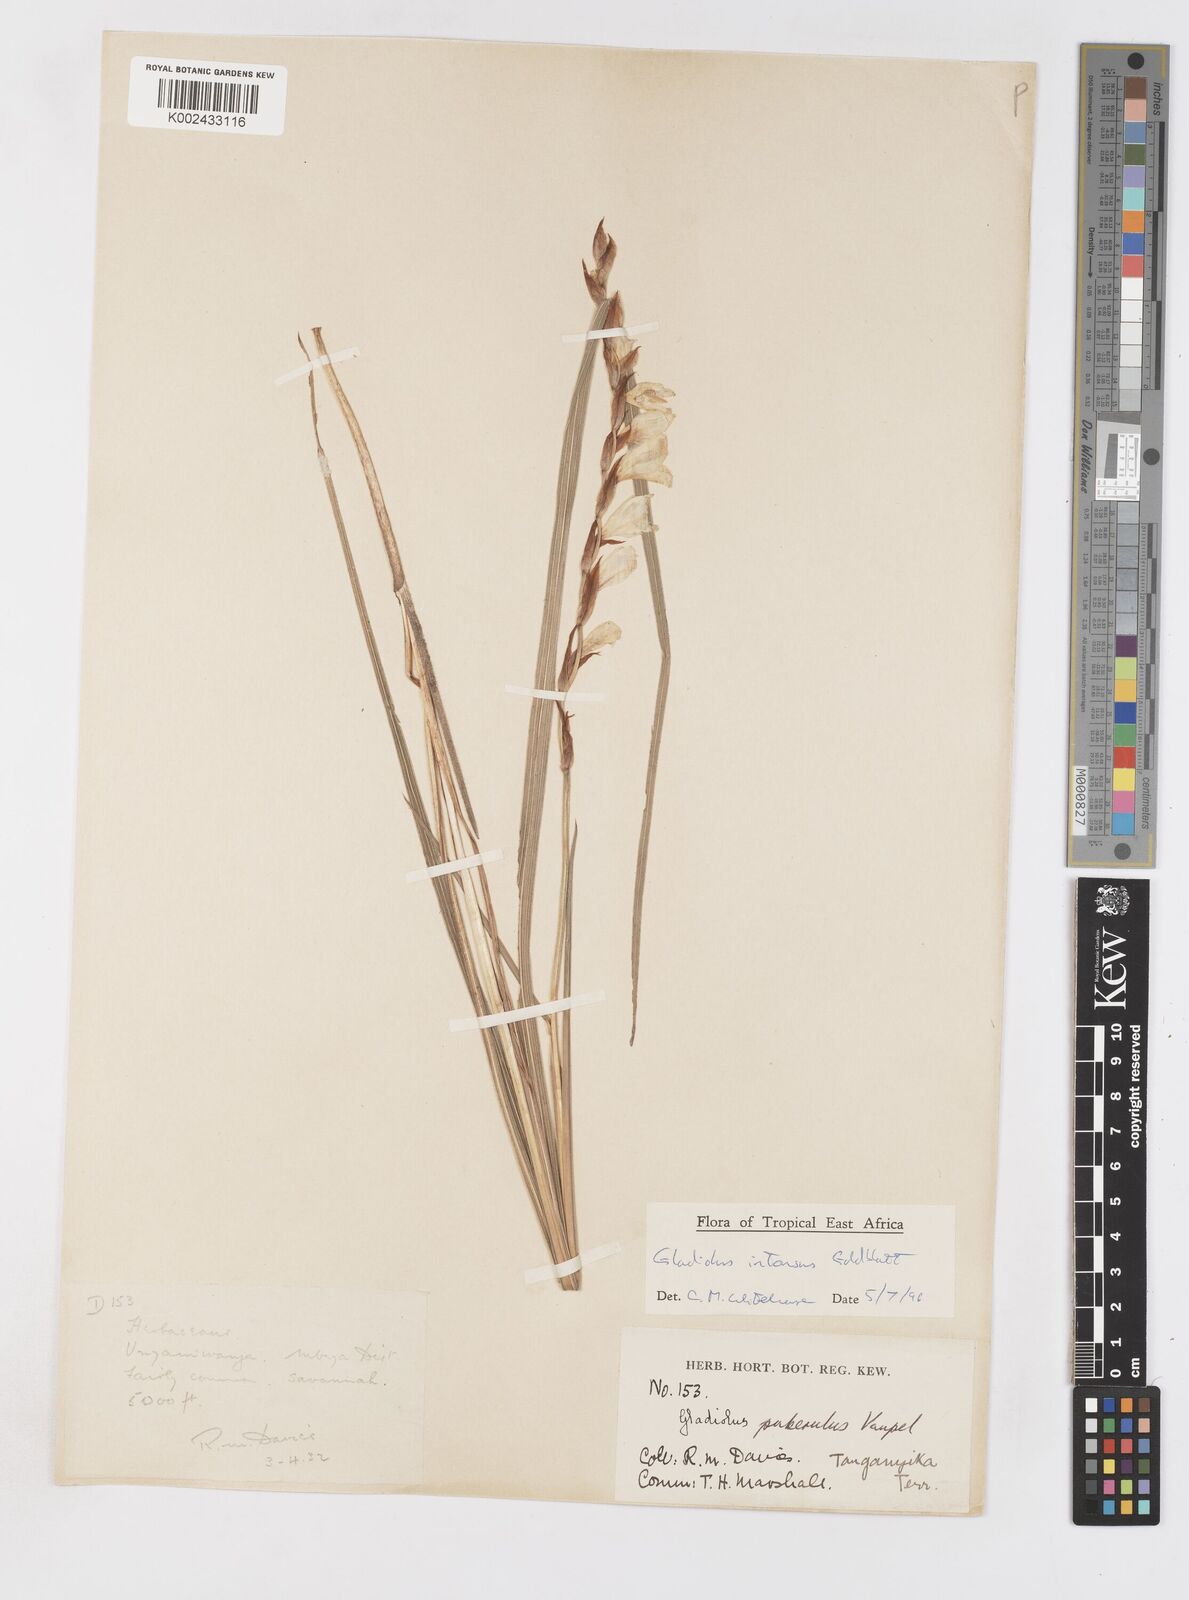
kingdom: Plantae
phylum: Tracheophyta
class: Liliopsida
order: Asparagales
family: Iridaceae
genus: Gladiolus
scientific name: Gladiolus intonsus
